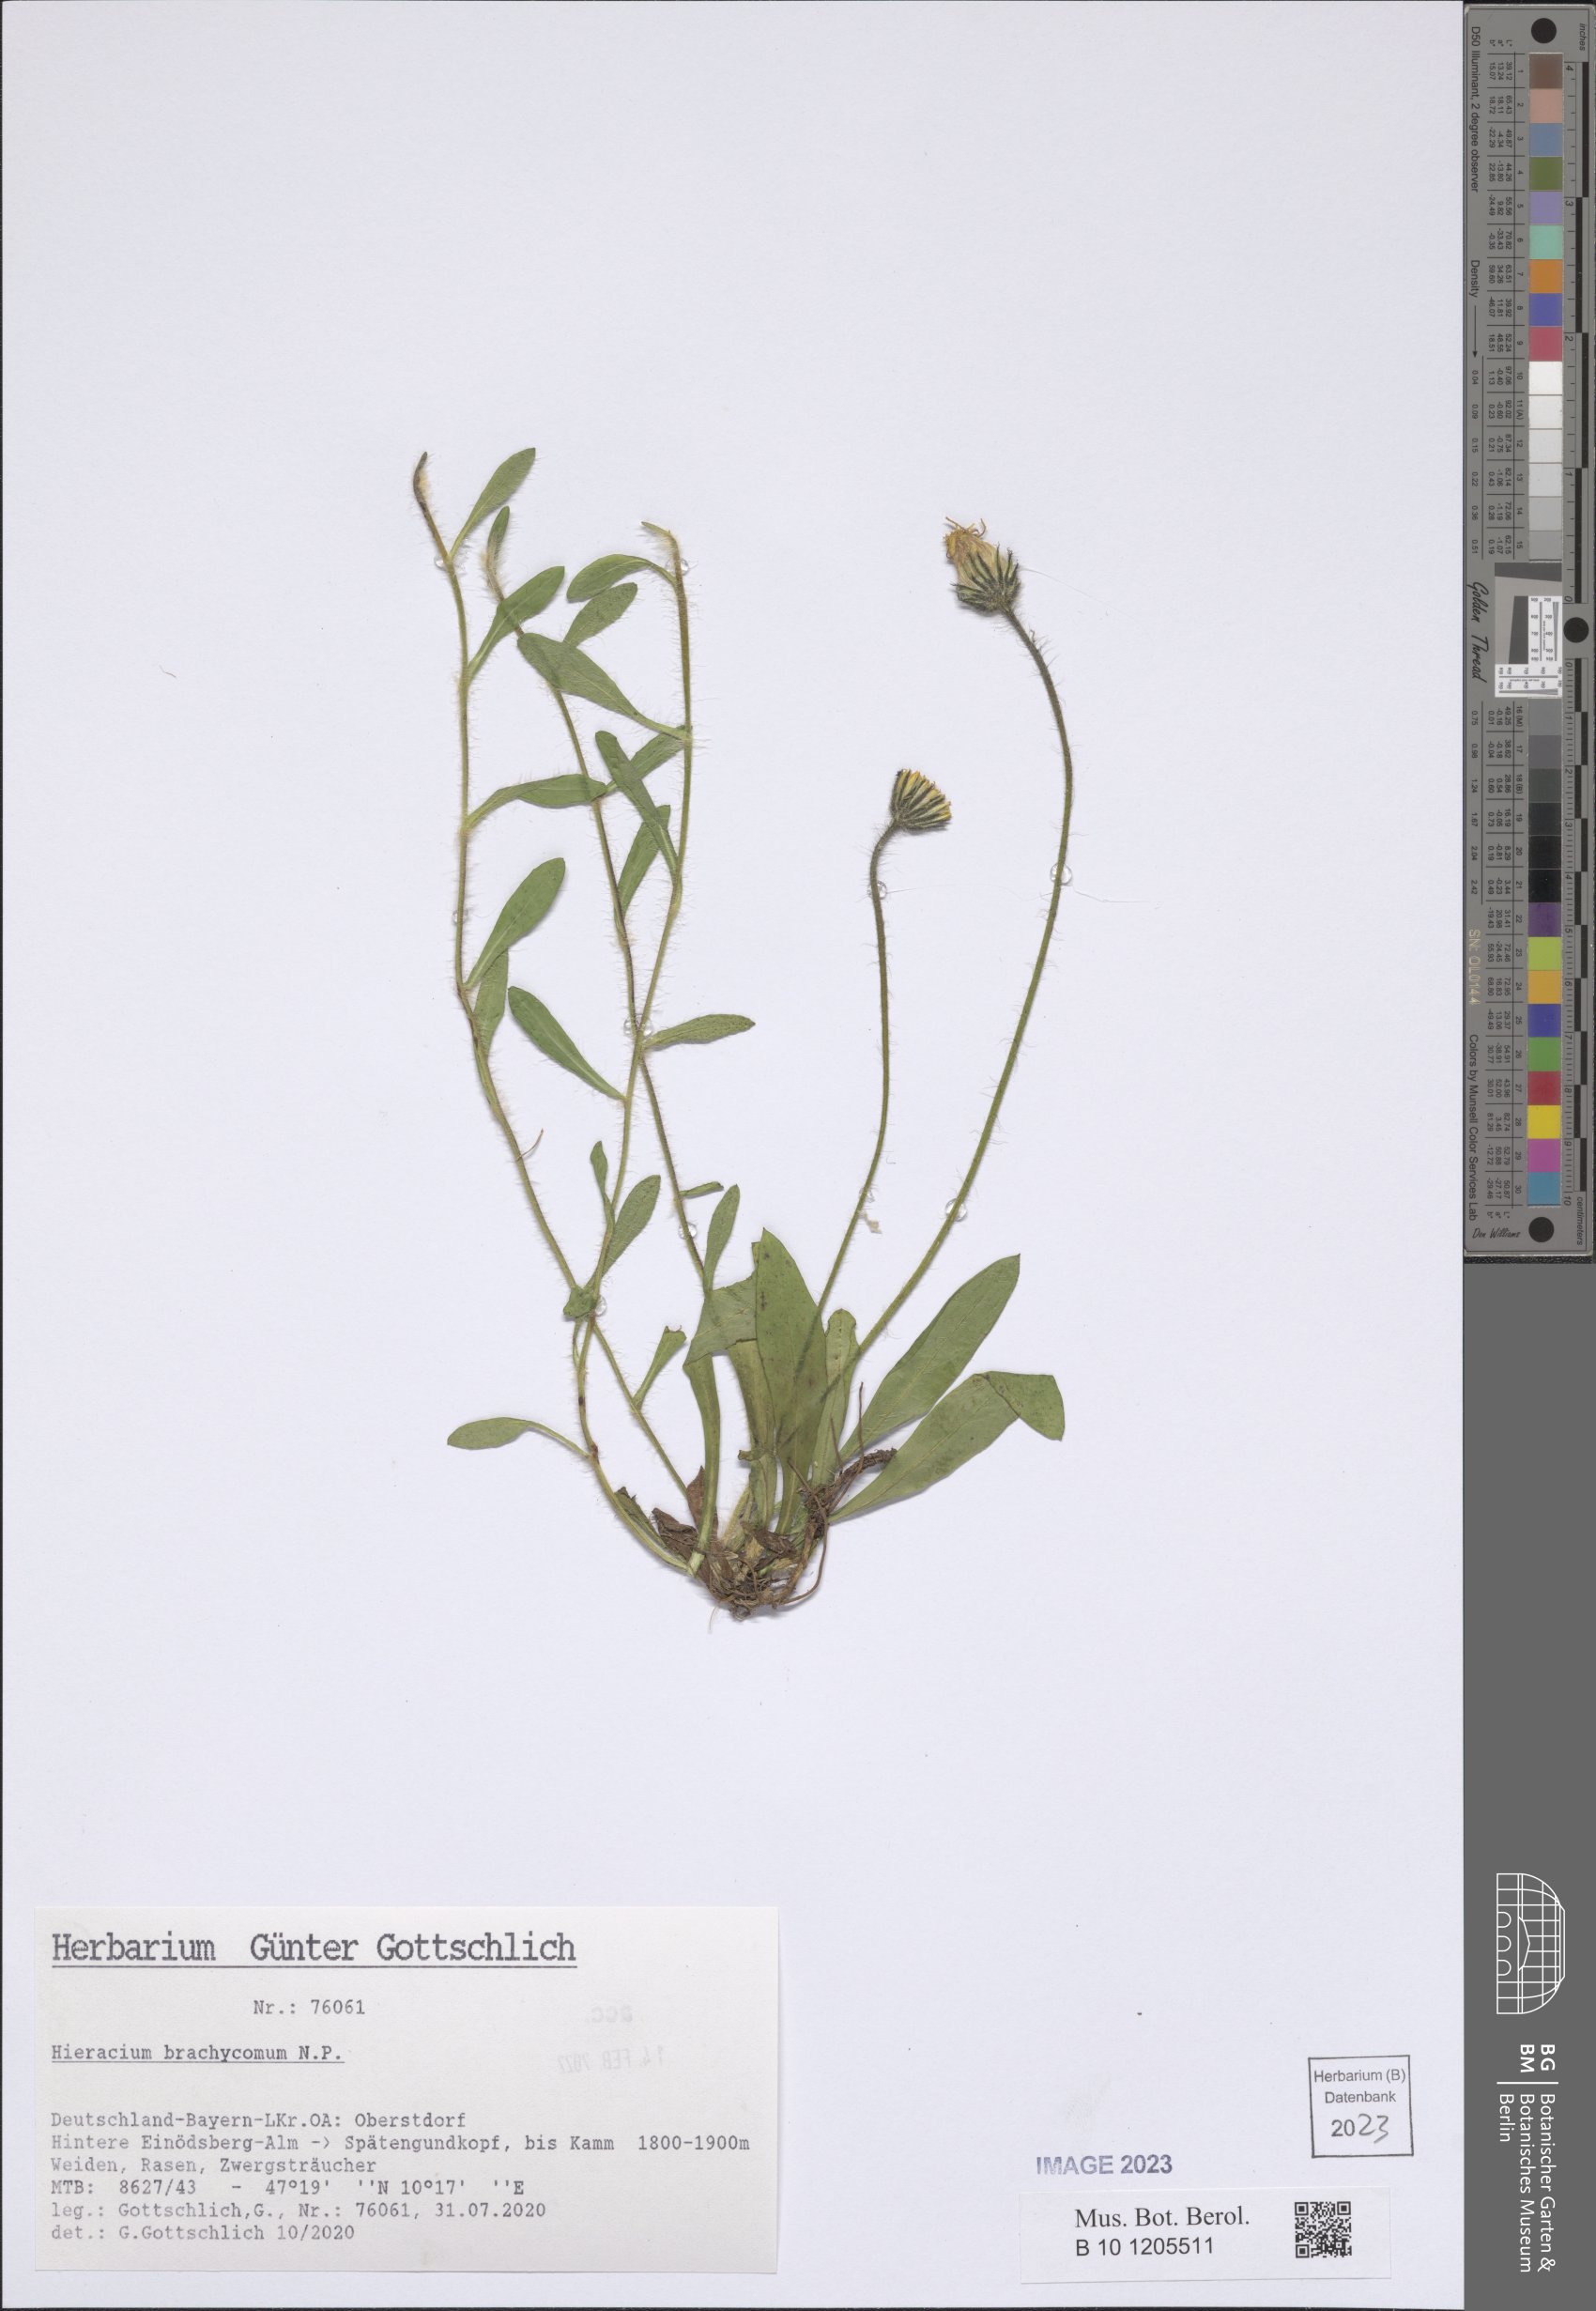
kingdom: Plantae
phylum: Tracheophyta
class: Magnoliopsida
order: Asterales
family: Asteraceae
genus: Pilosella
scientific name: Pilosella brachycoma
